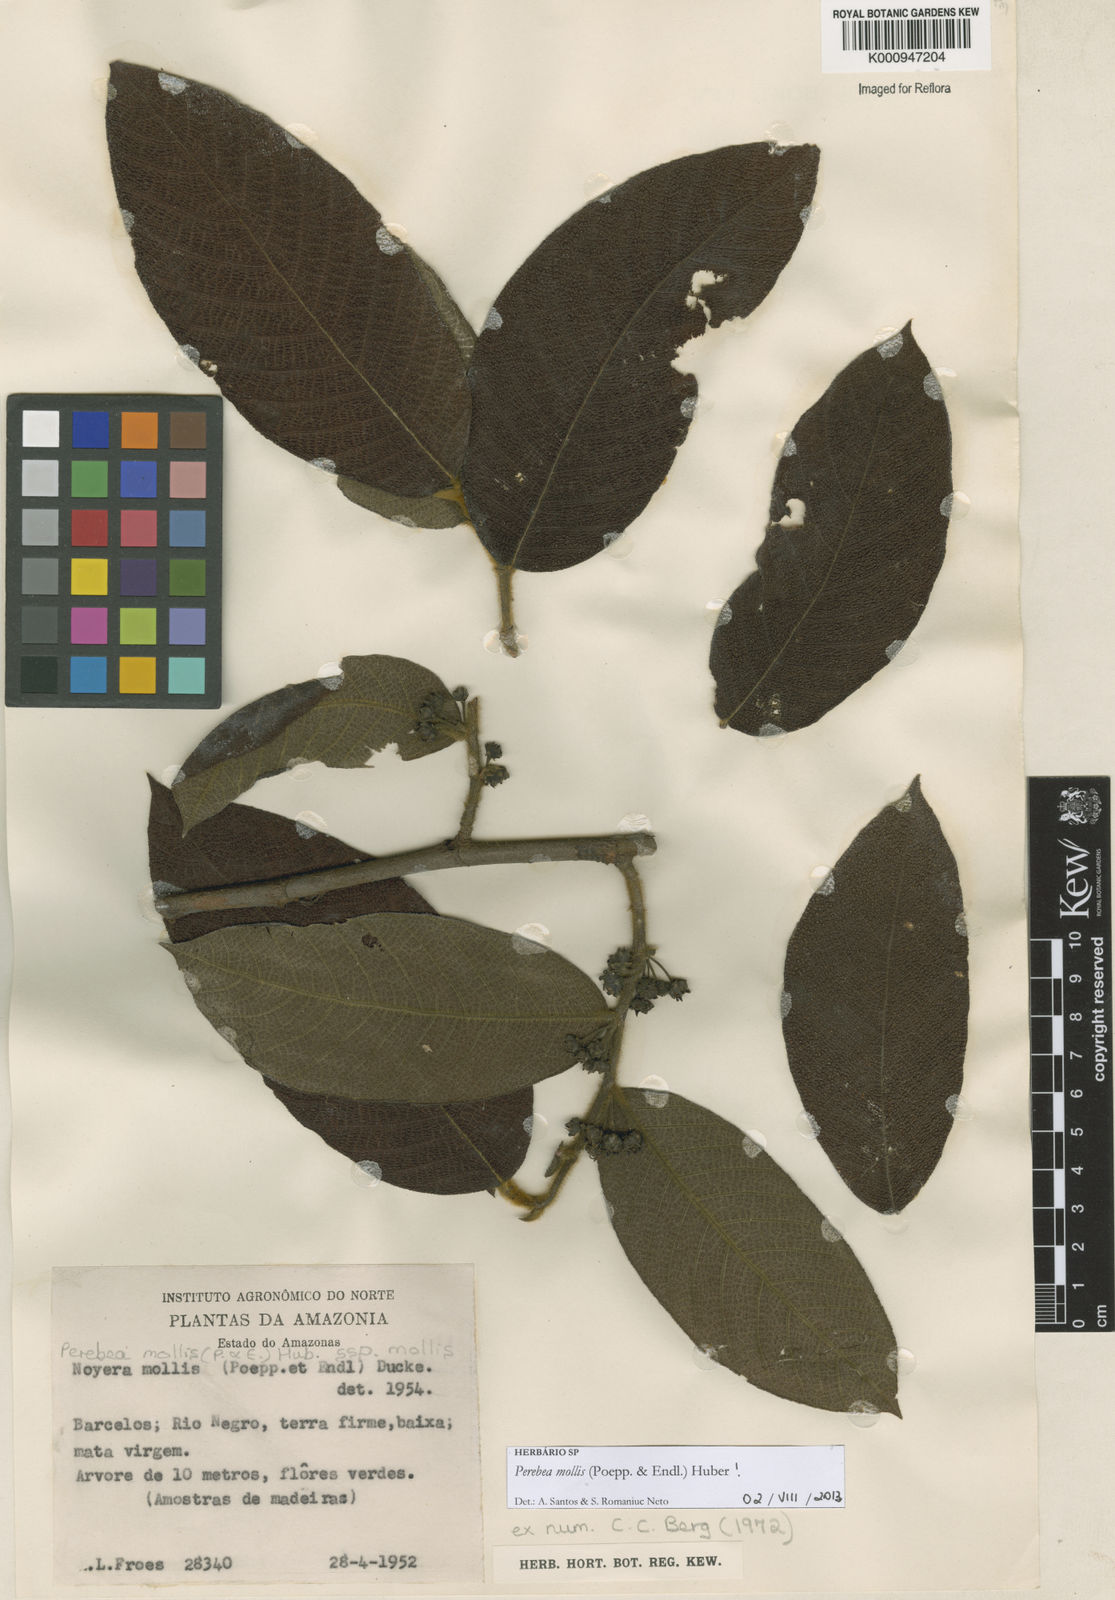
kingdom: Plantae
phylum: Tracheophyta
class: Magnoliopsida
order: Rosales
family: Moraceae
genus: Perebea
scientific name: Perebea mollis
